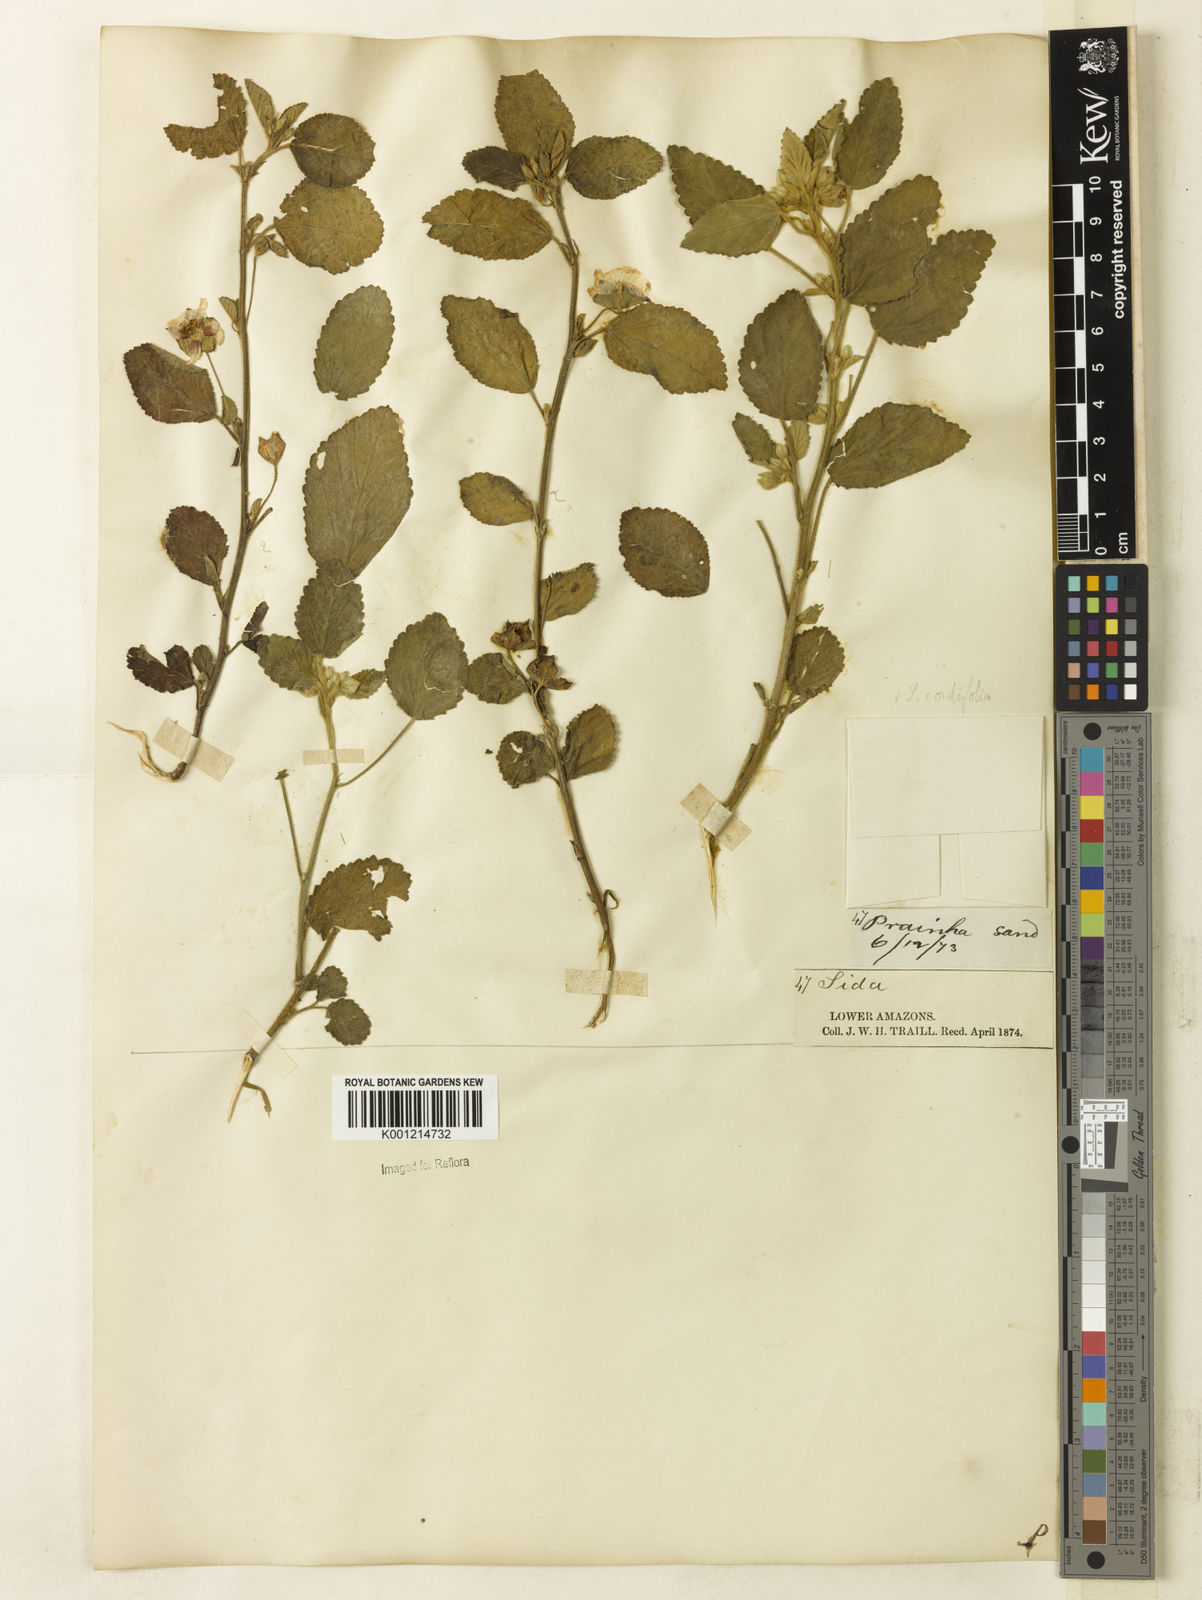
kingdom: Plantae
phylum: Tracheophyta
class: Magnoliopsida
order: Malvales
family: Malvaceae
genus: Sida
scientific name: Sida cordifolia
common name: Ilima
